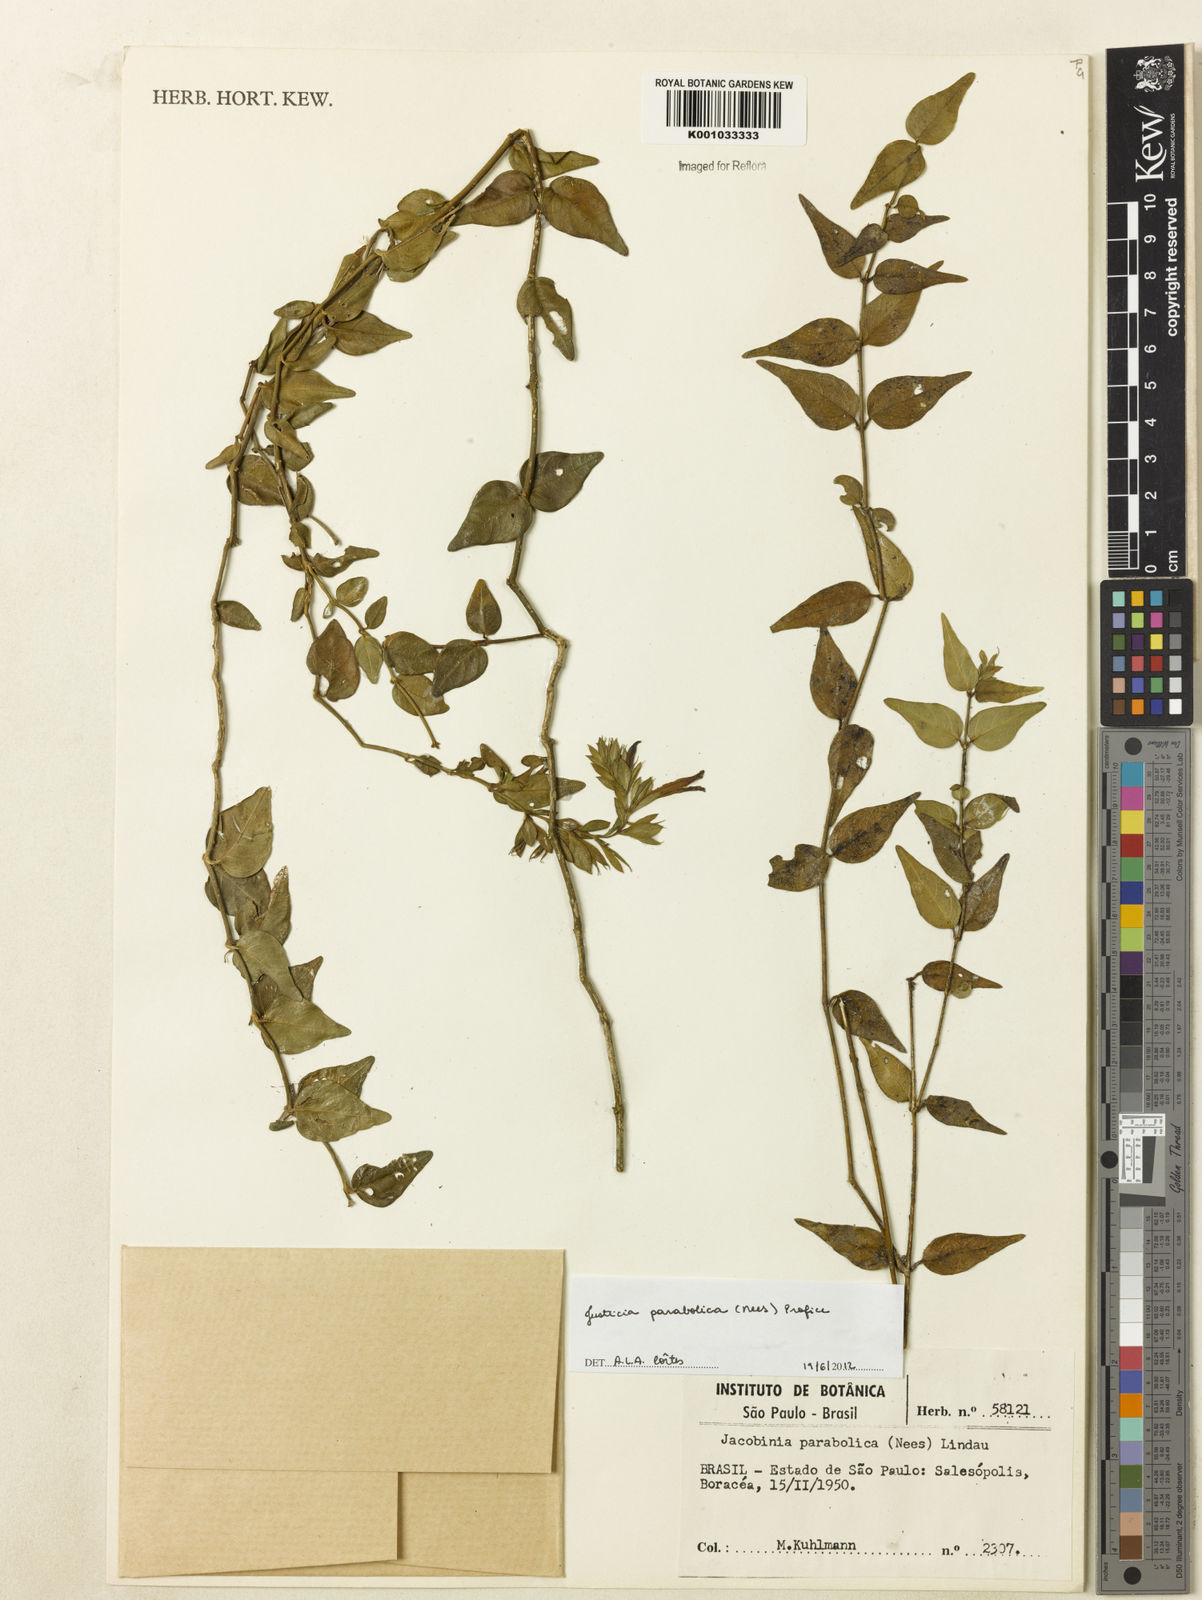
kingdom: Plantae
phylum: Tracheophyta
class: Magnoliopsida
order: Lamiales
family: Acanthaceae
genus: Justicia
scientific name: Justicia parabolica
